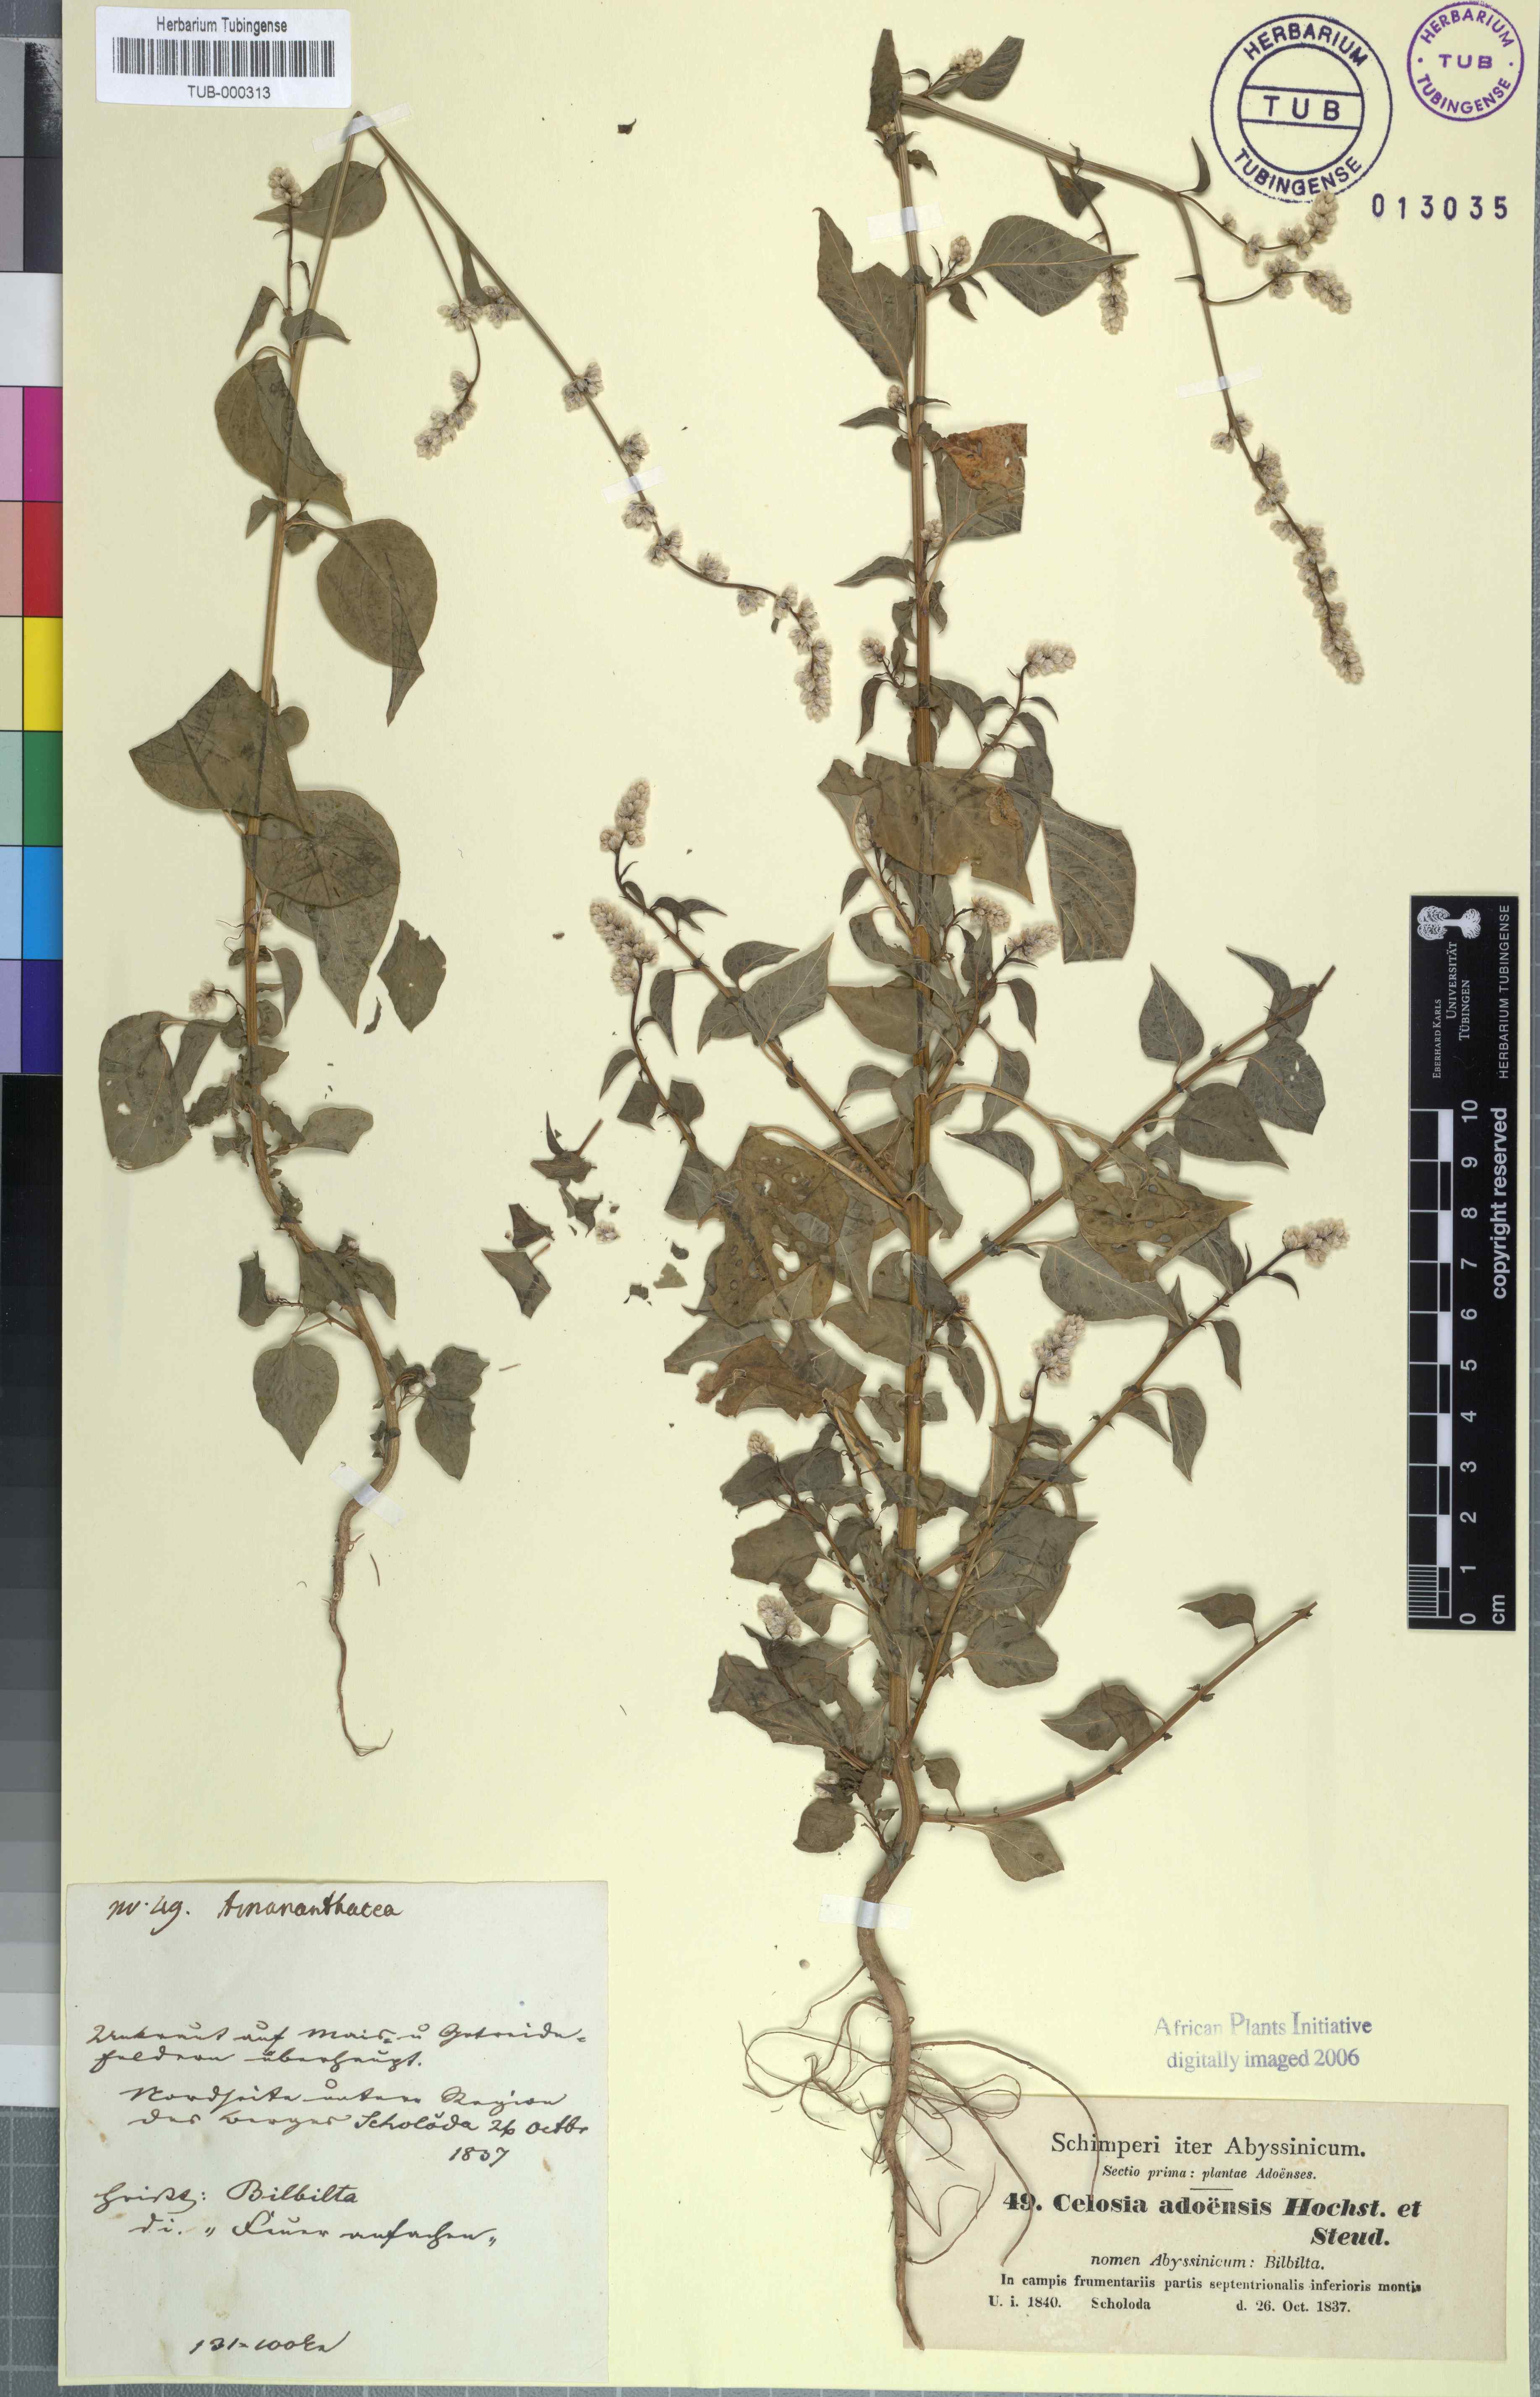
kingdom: Plantae
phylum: Tracheophyta
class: Magnoliopsida
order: Caryophyllales
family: Amaranthaceae
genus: Celosia
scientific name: Celosia trigyna
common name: Woolflower
